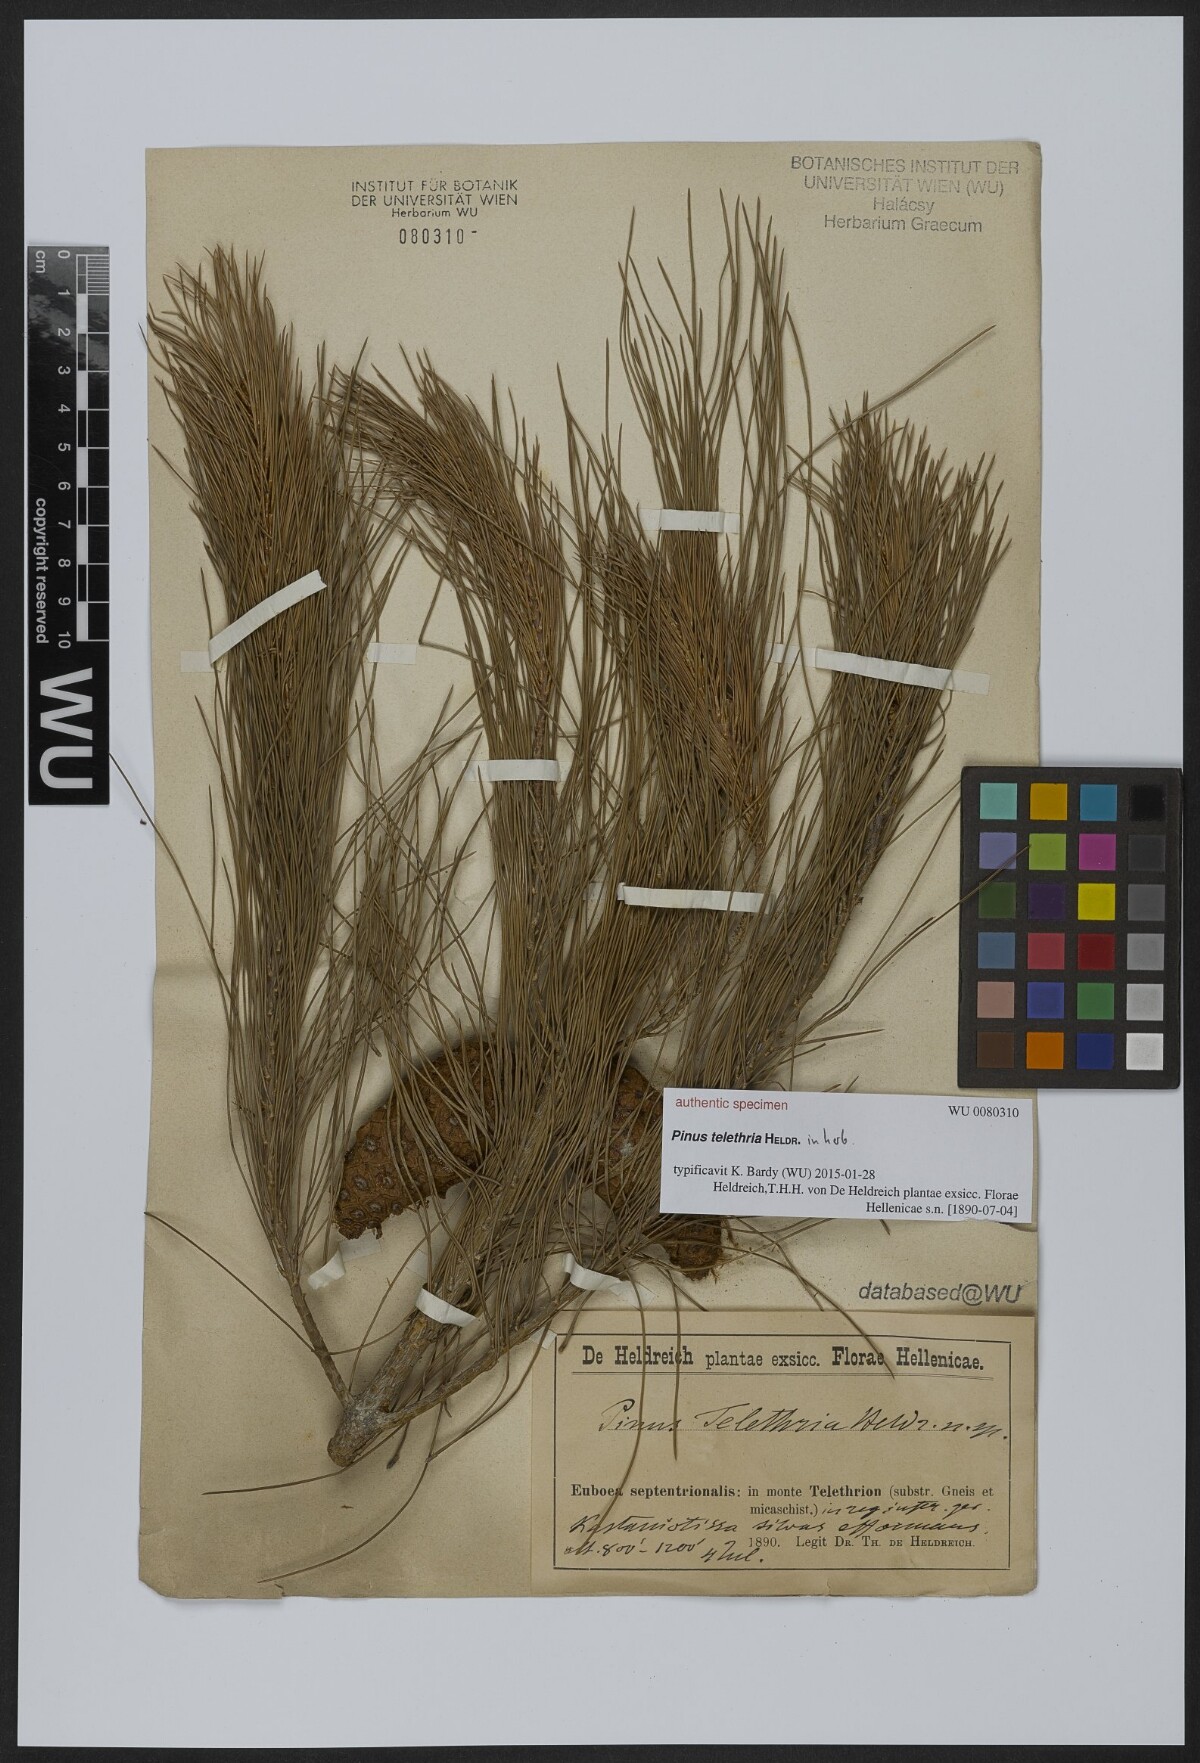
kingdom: Plantae
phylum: Tracheophyta
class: Pinopsida
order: Pinales
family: Pinaceae
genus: Pinus
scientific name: Pinus
